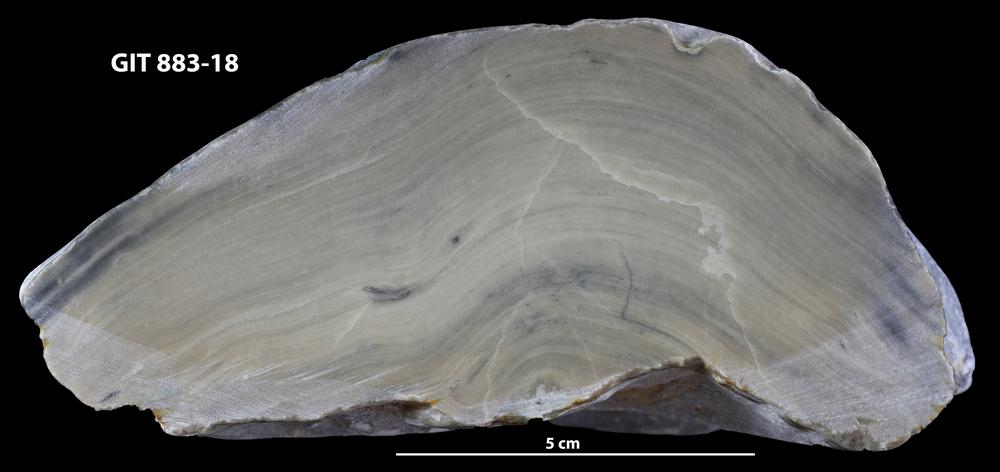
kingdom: Animalia
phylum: Porifera
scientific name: Porifera
